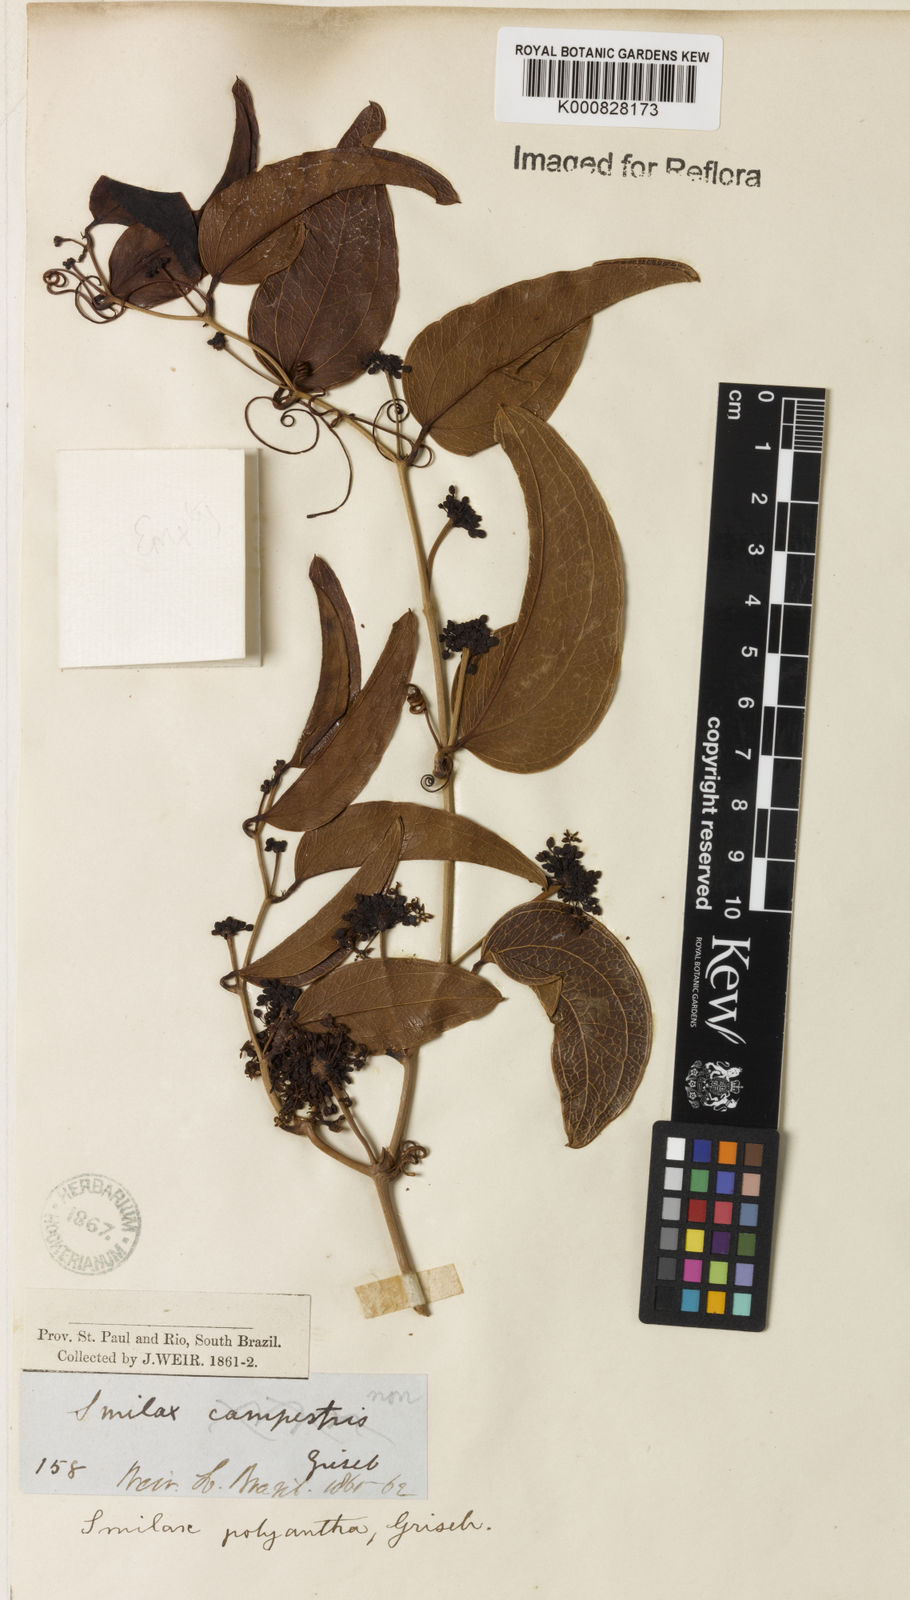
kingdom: Plantae
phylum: Tracheophyta
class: Liliopsida
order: Liliales
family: Smilacaceae
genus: Smilax
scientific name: Smilax polyantha
